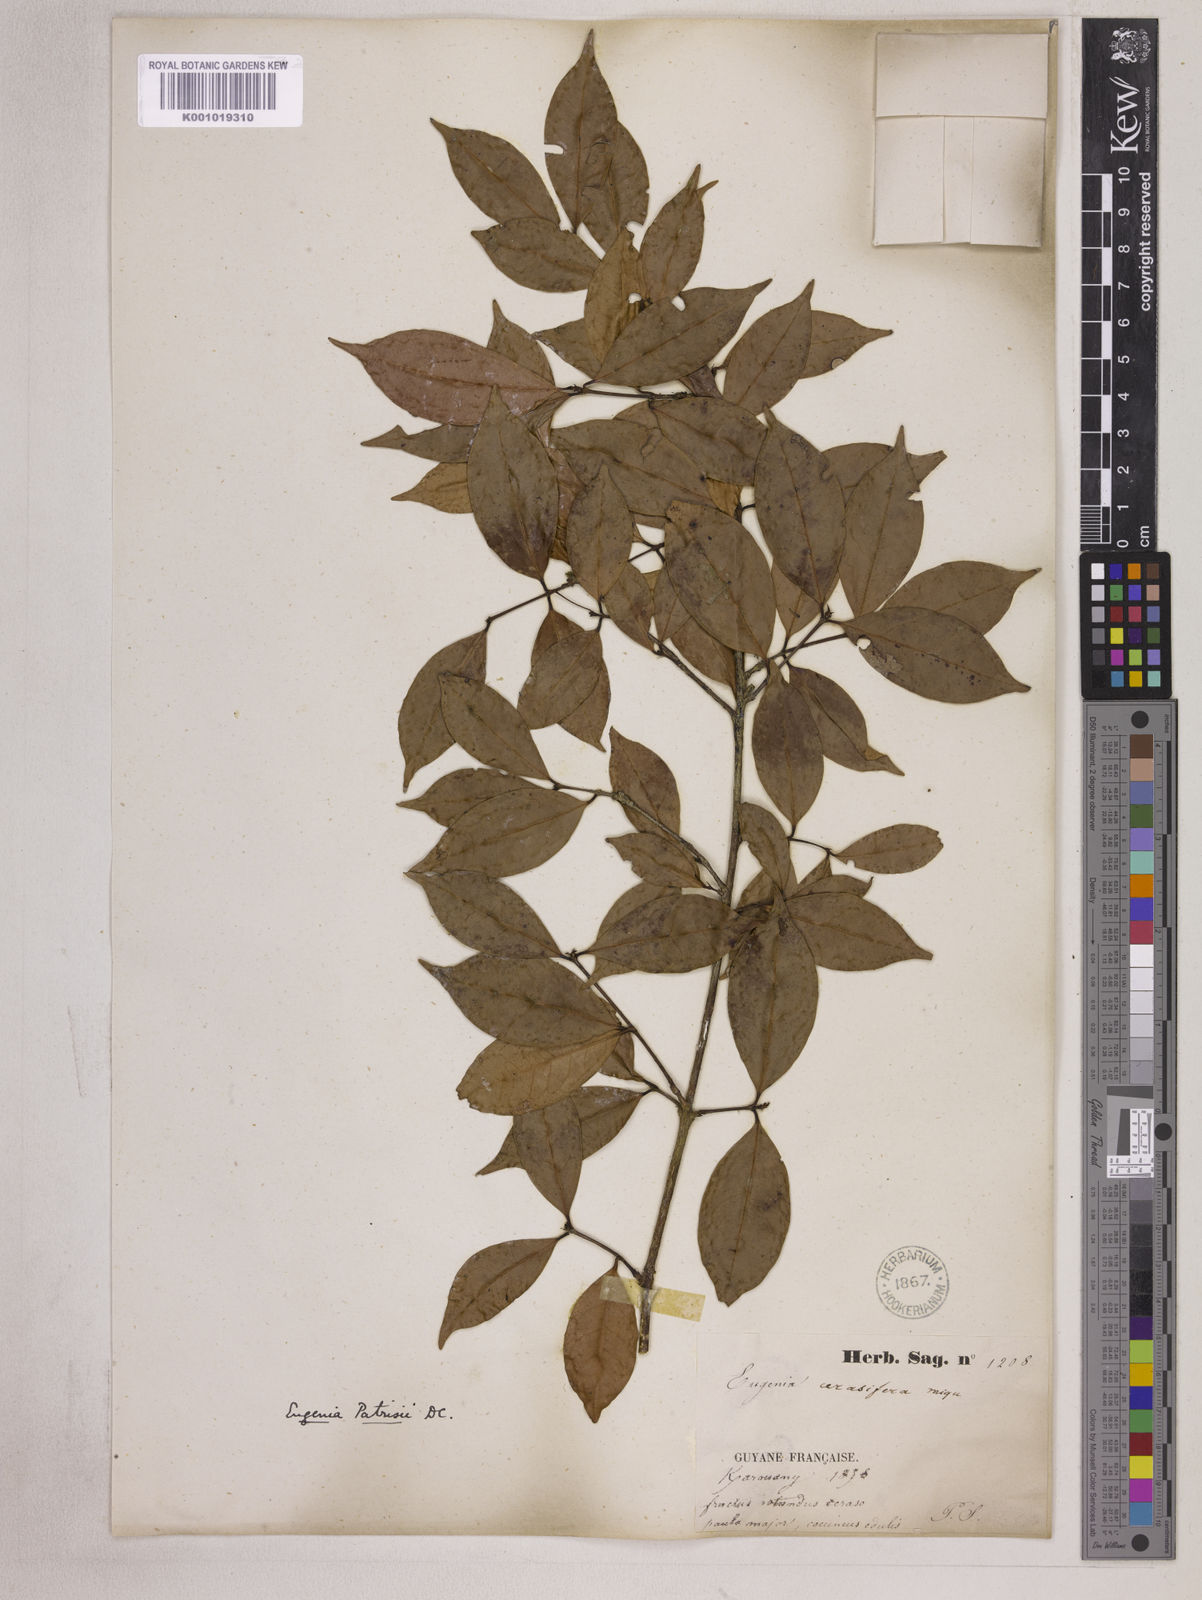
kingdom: Plantae
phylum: Tracheophyta
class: Magnoliopsida
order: Myrtales
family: Myrtaceae
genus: Eugenia
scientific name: Eugenia patrisii
